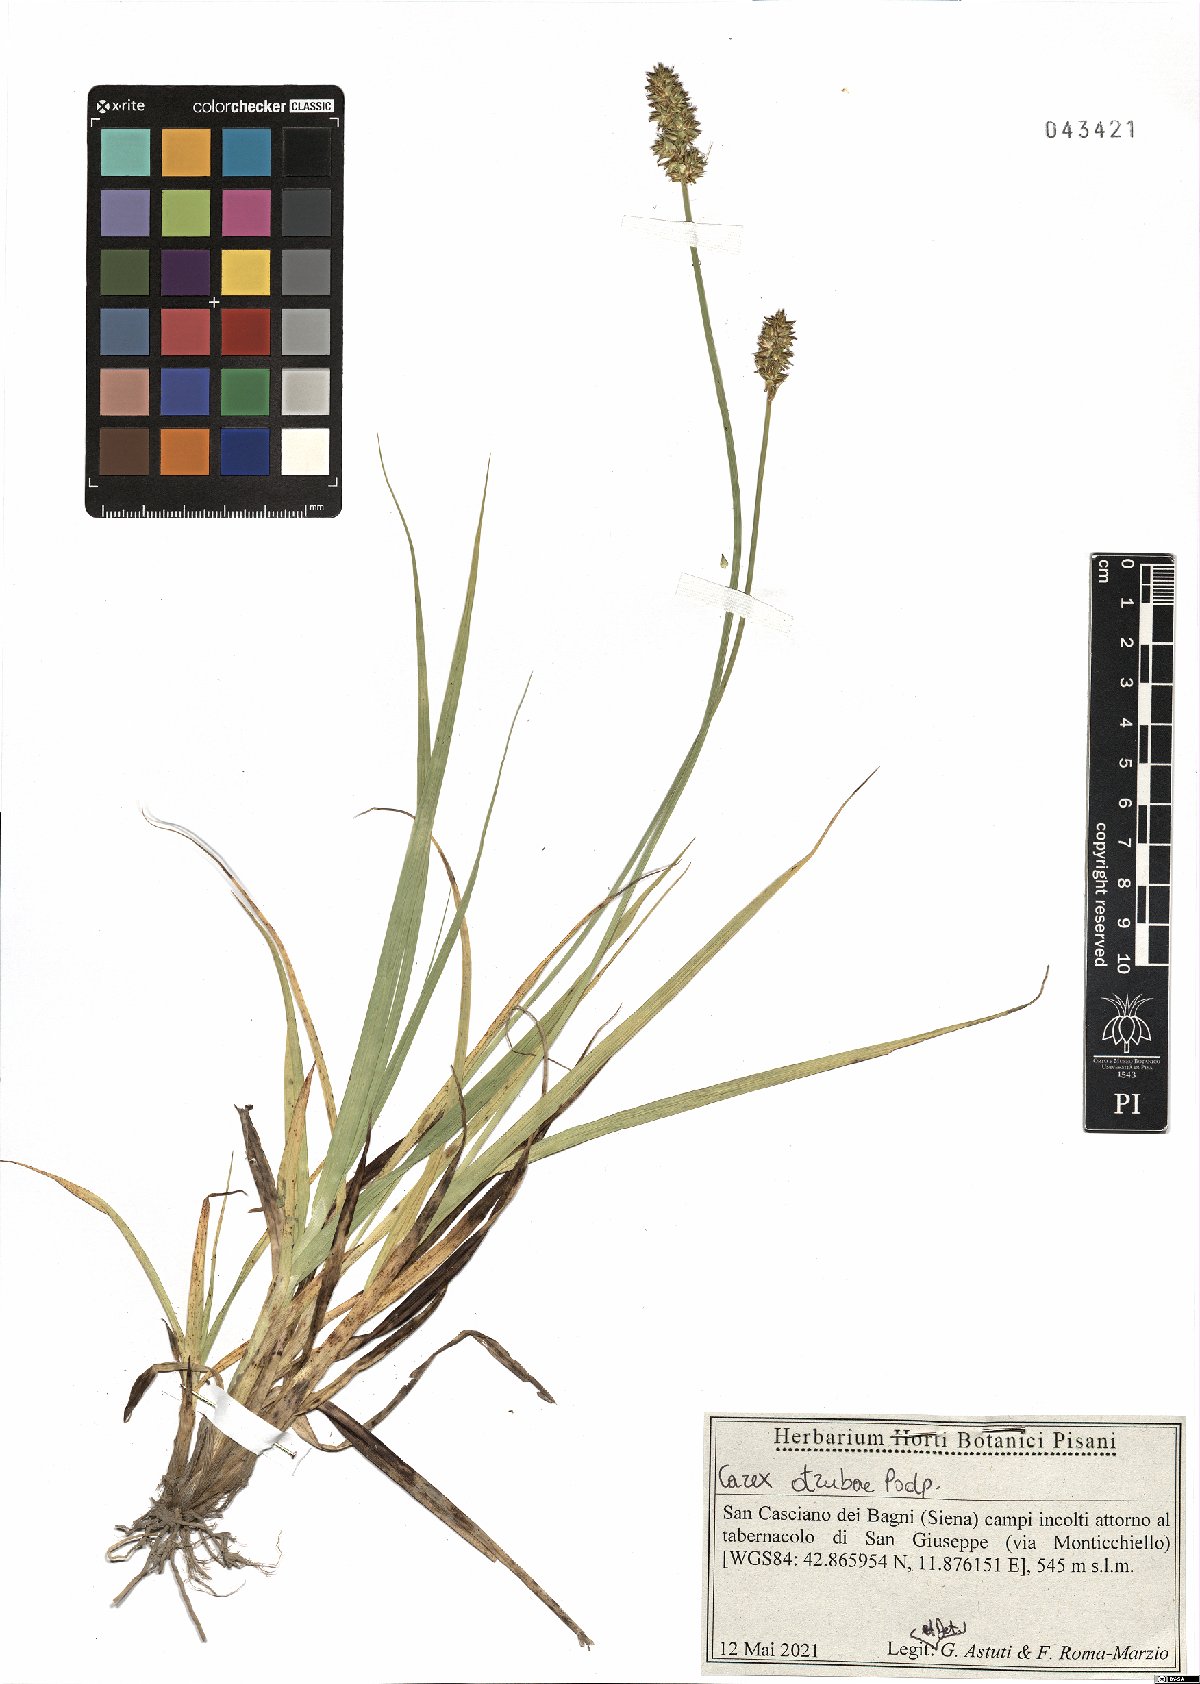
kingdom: Plantae
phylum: Tracheophyta
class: Liliopsida
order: Poales
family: Cyperaceae
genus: Carex
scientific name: Carex otrubae
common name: False fox-sedge
